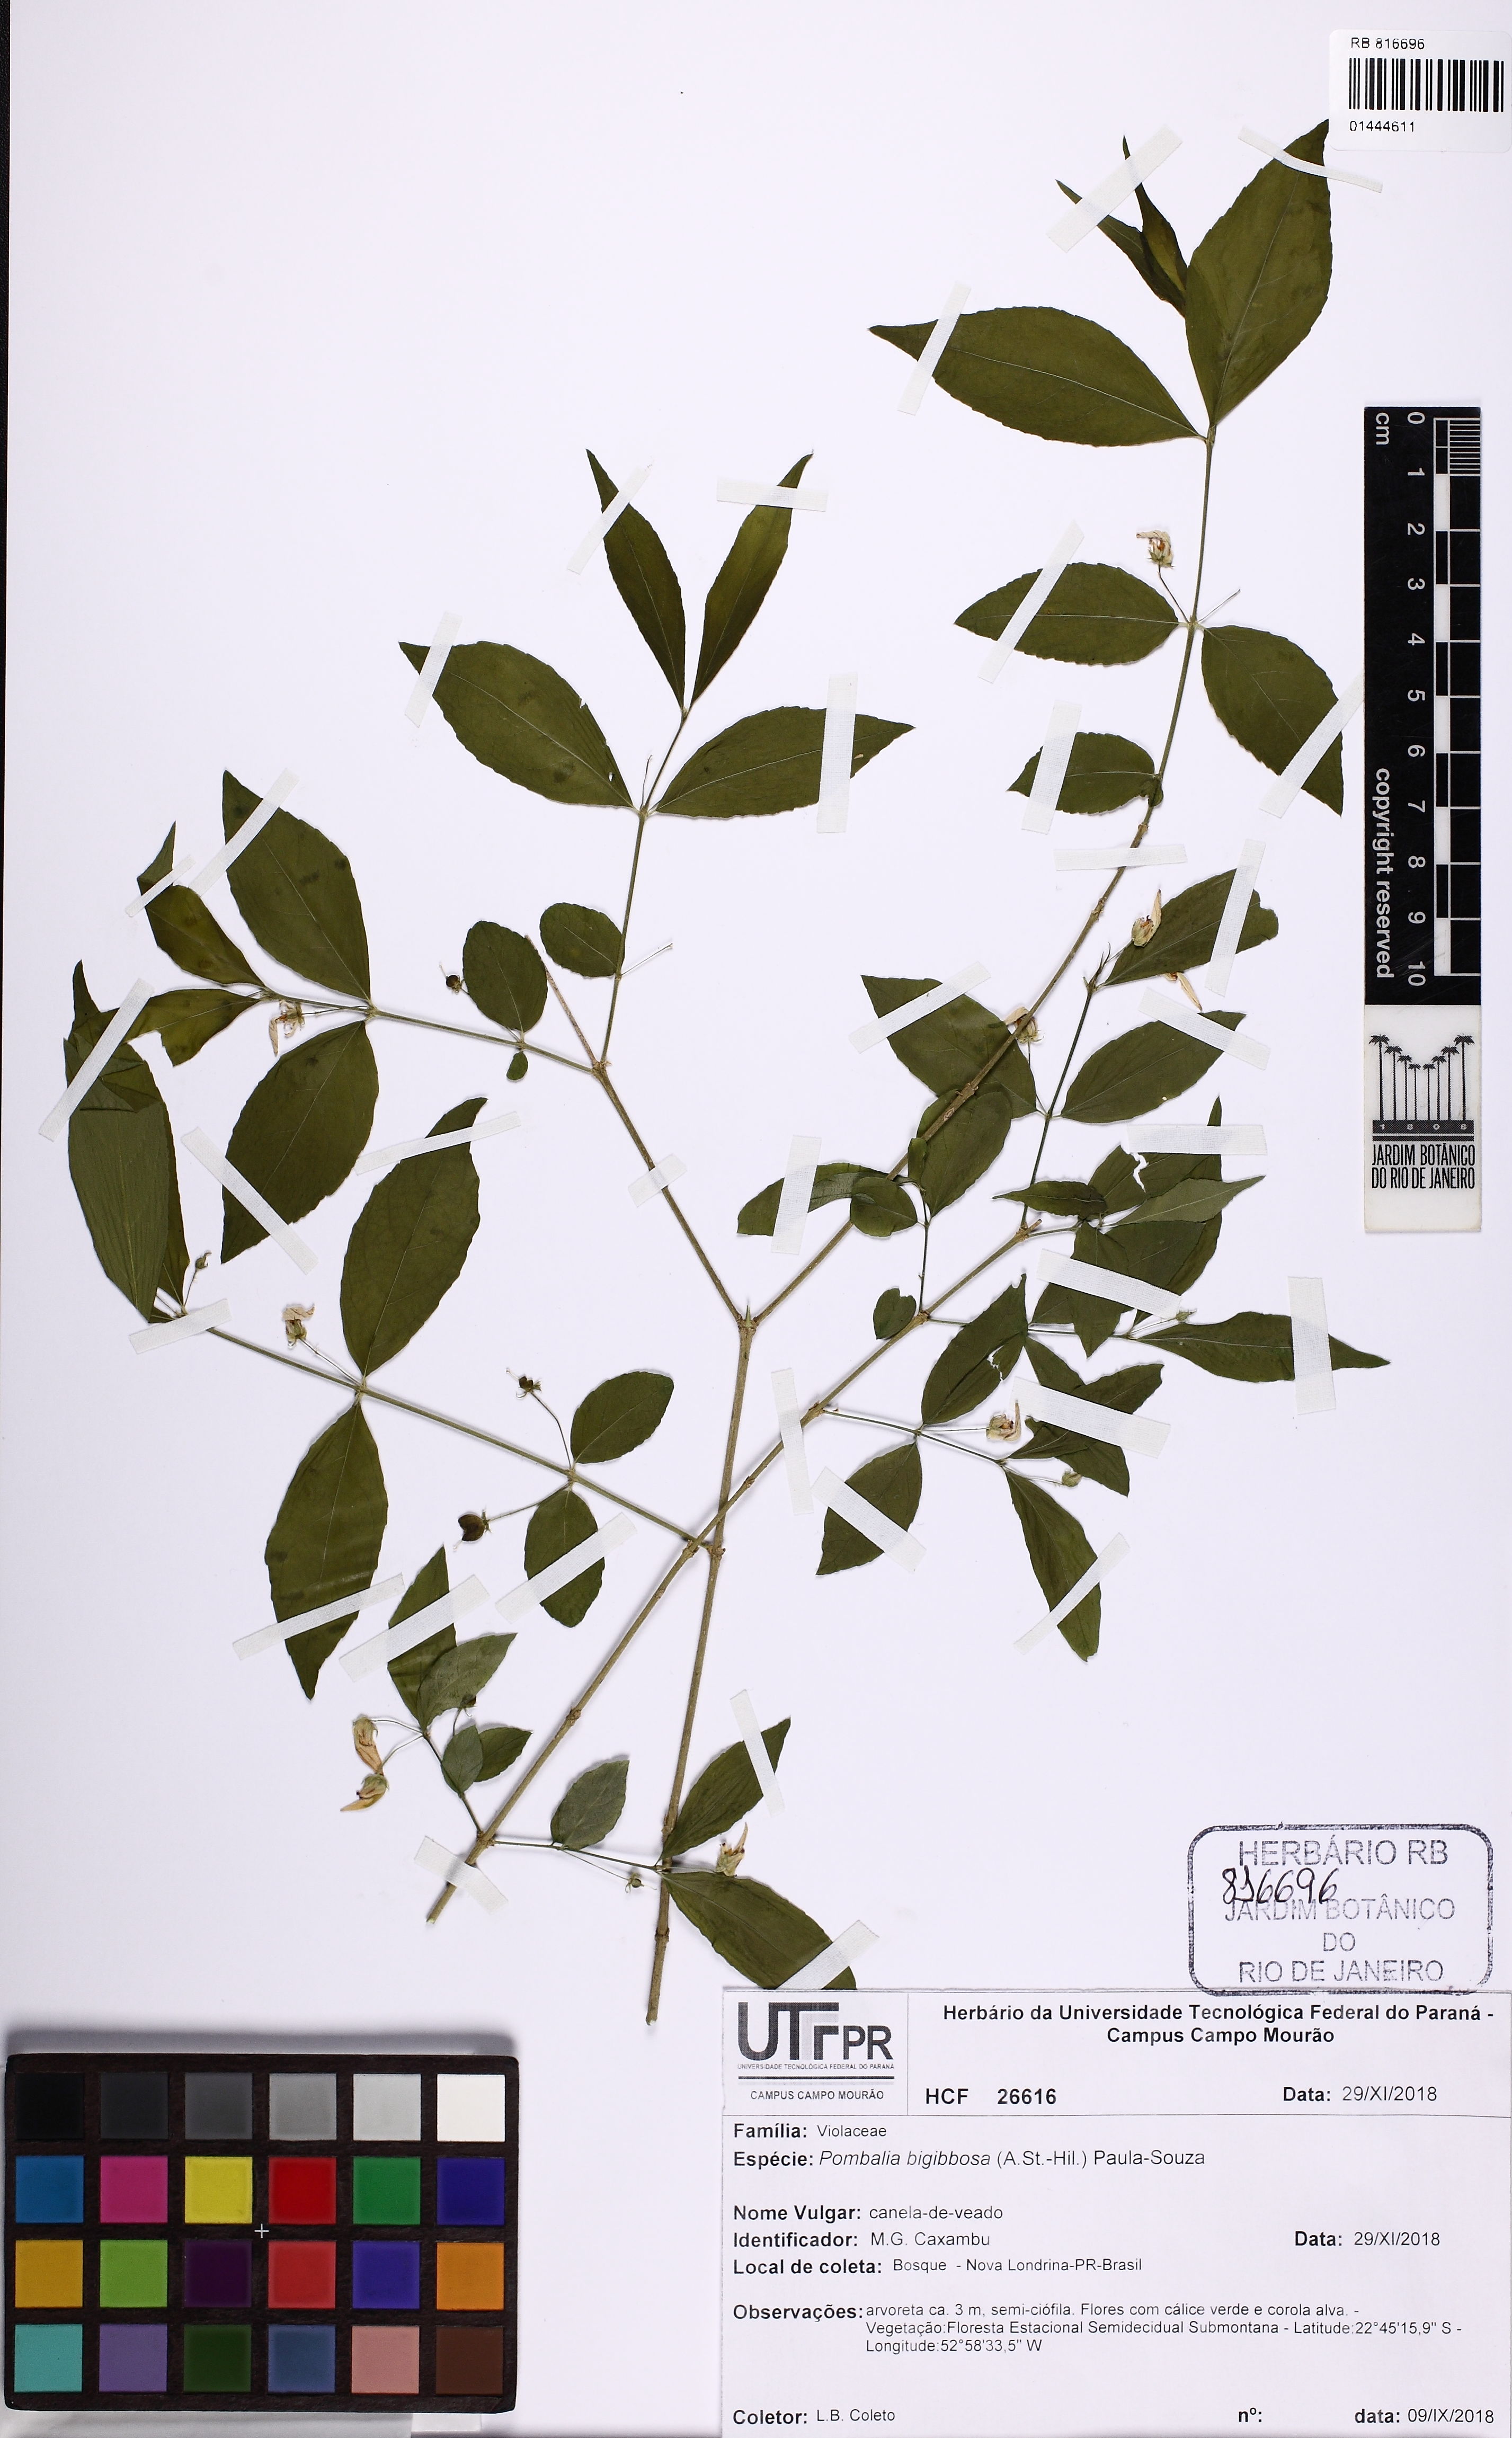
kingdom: Plantae
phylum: Tracheophyta
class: Magnoliopsida
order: Malpighiales
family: Violaceae
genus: Pombalia
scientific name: Pombalia bigibbosa
